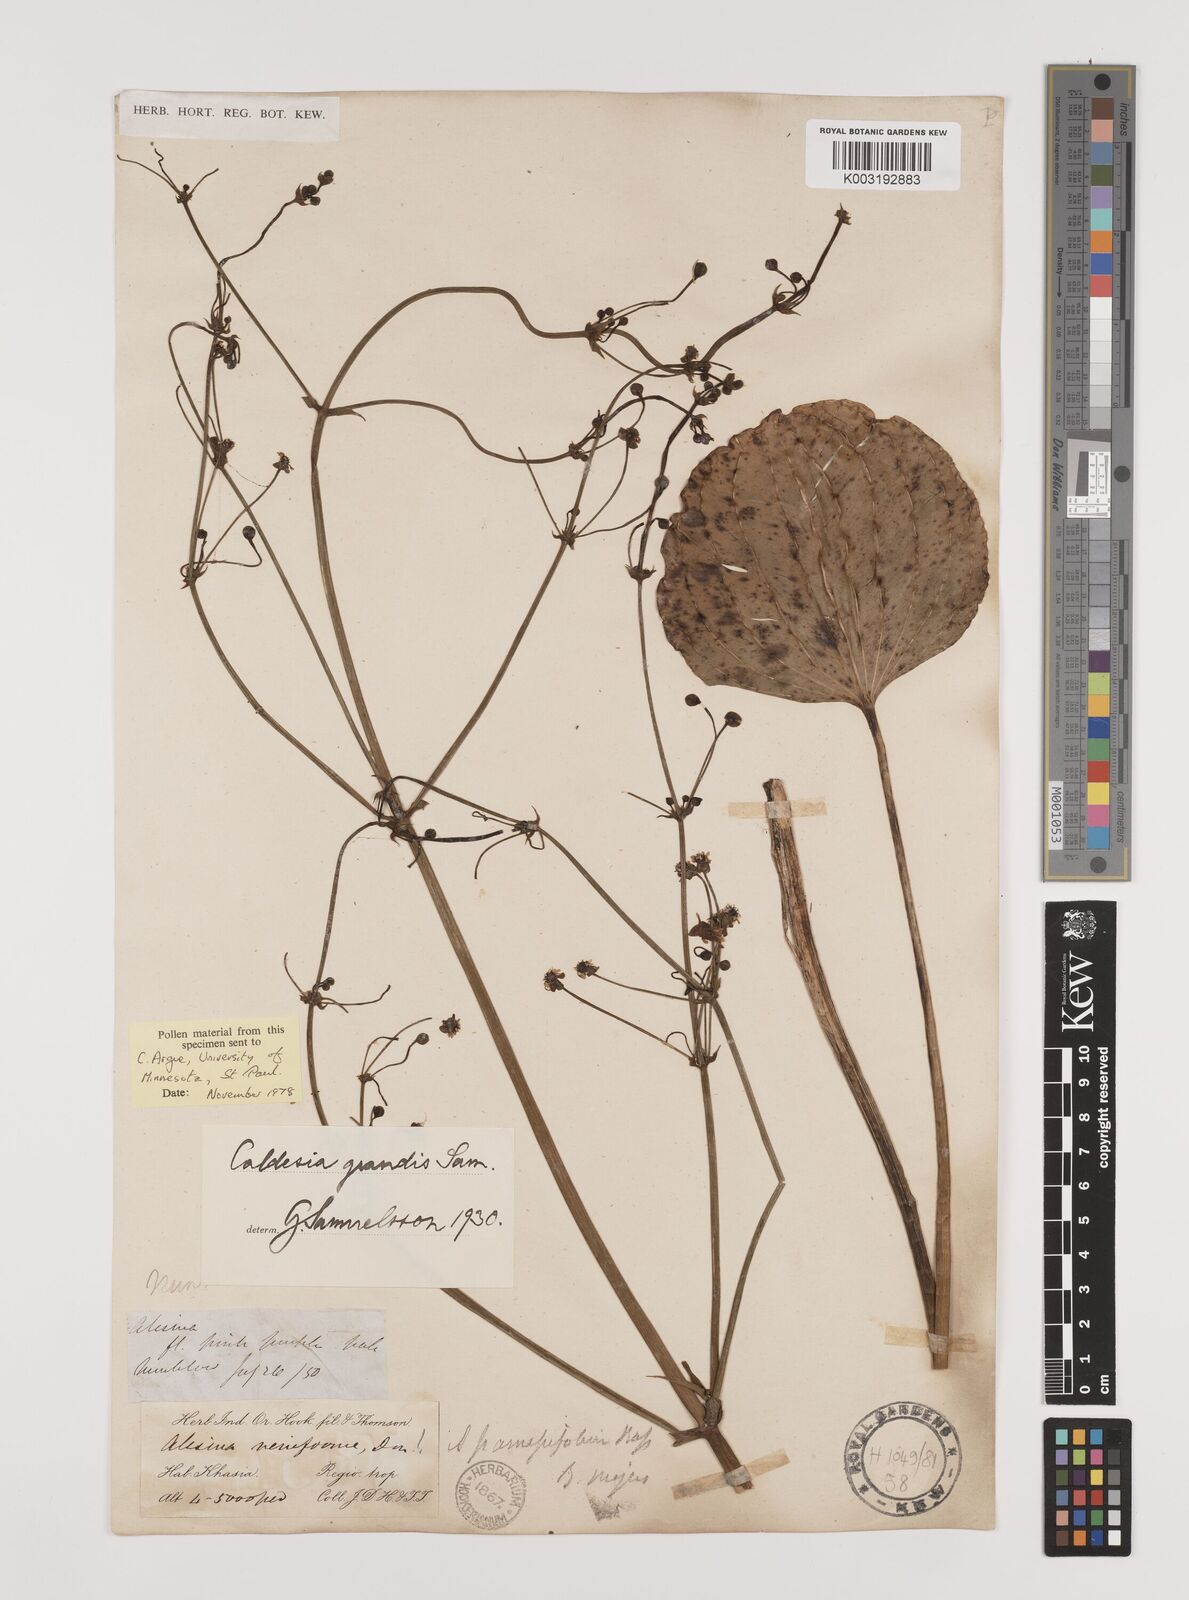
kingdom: Plantae
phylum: Tracheophyta
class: Liliopsida
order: Alismatales
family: Alismataceae
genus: Caldesia
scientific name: Caldesia grandis
